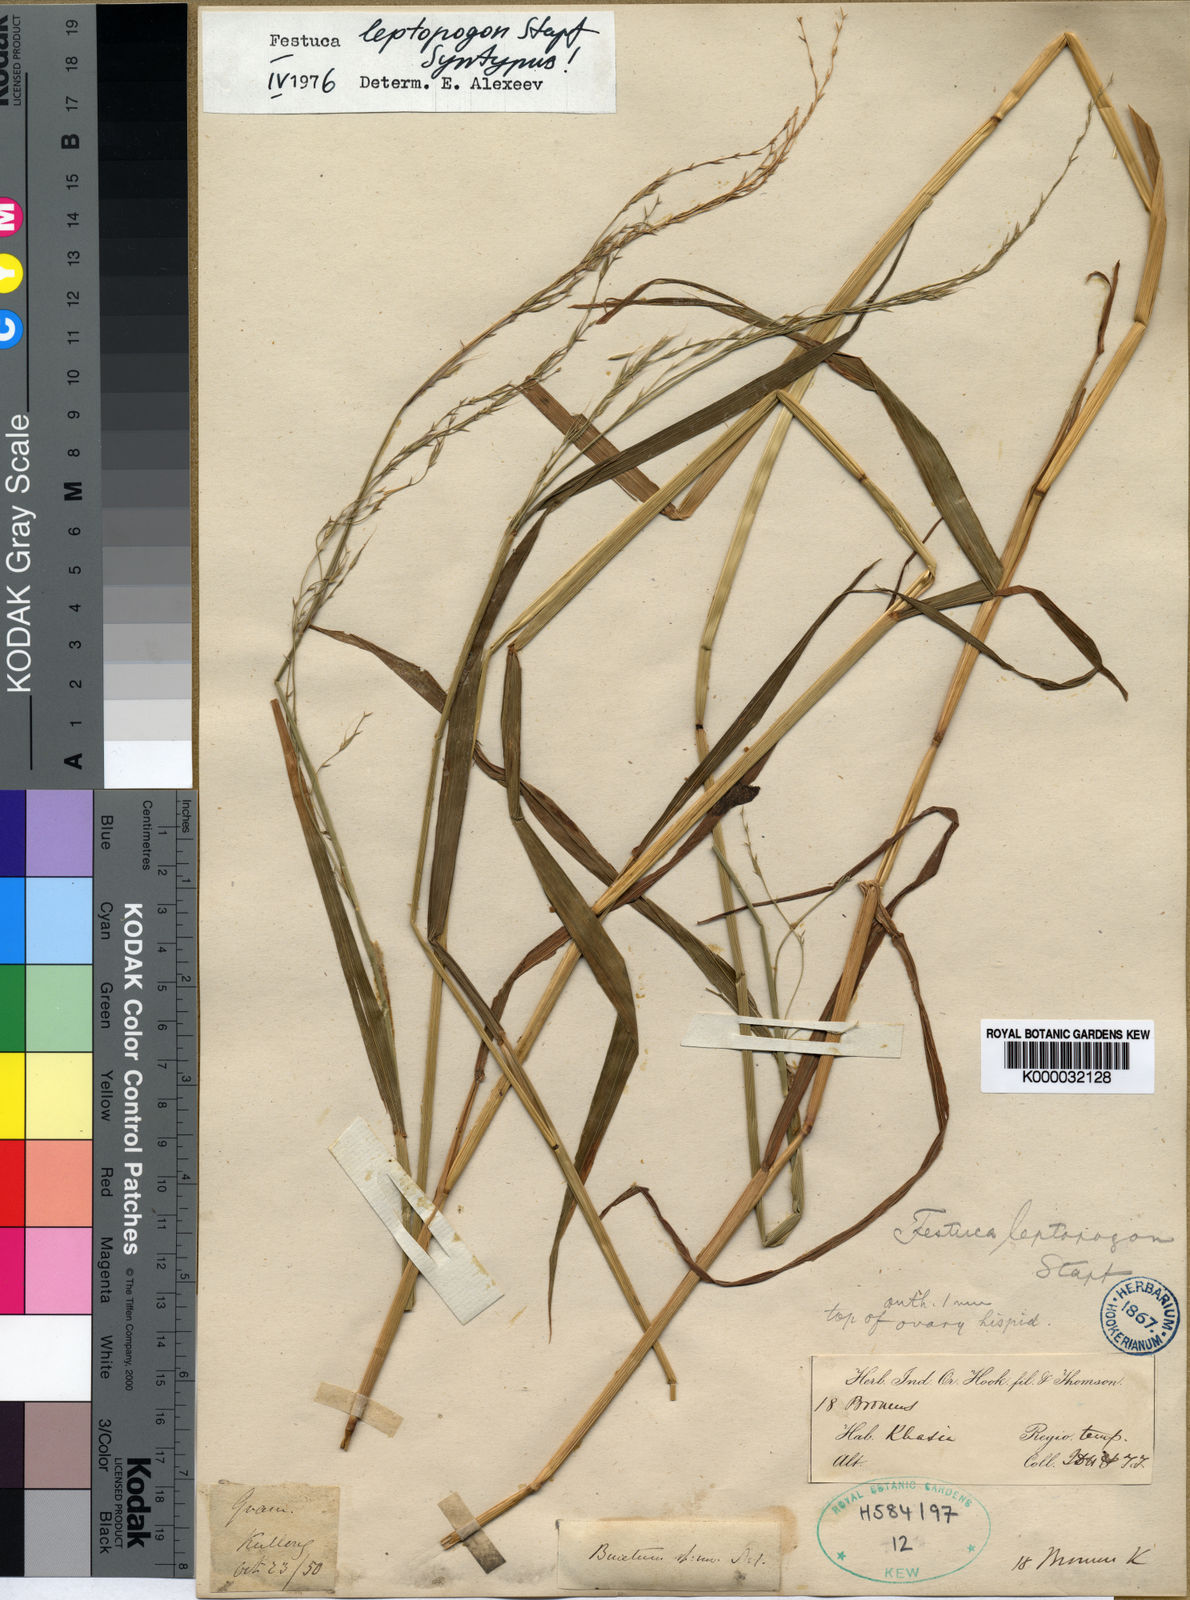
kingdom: Plantae
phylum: Tracheophyta
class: Liliopsida
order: Poales
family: Poaceae
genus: Festuca
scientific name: Festuca leptopogon
